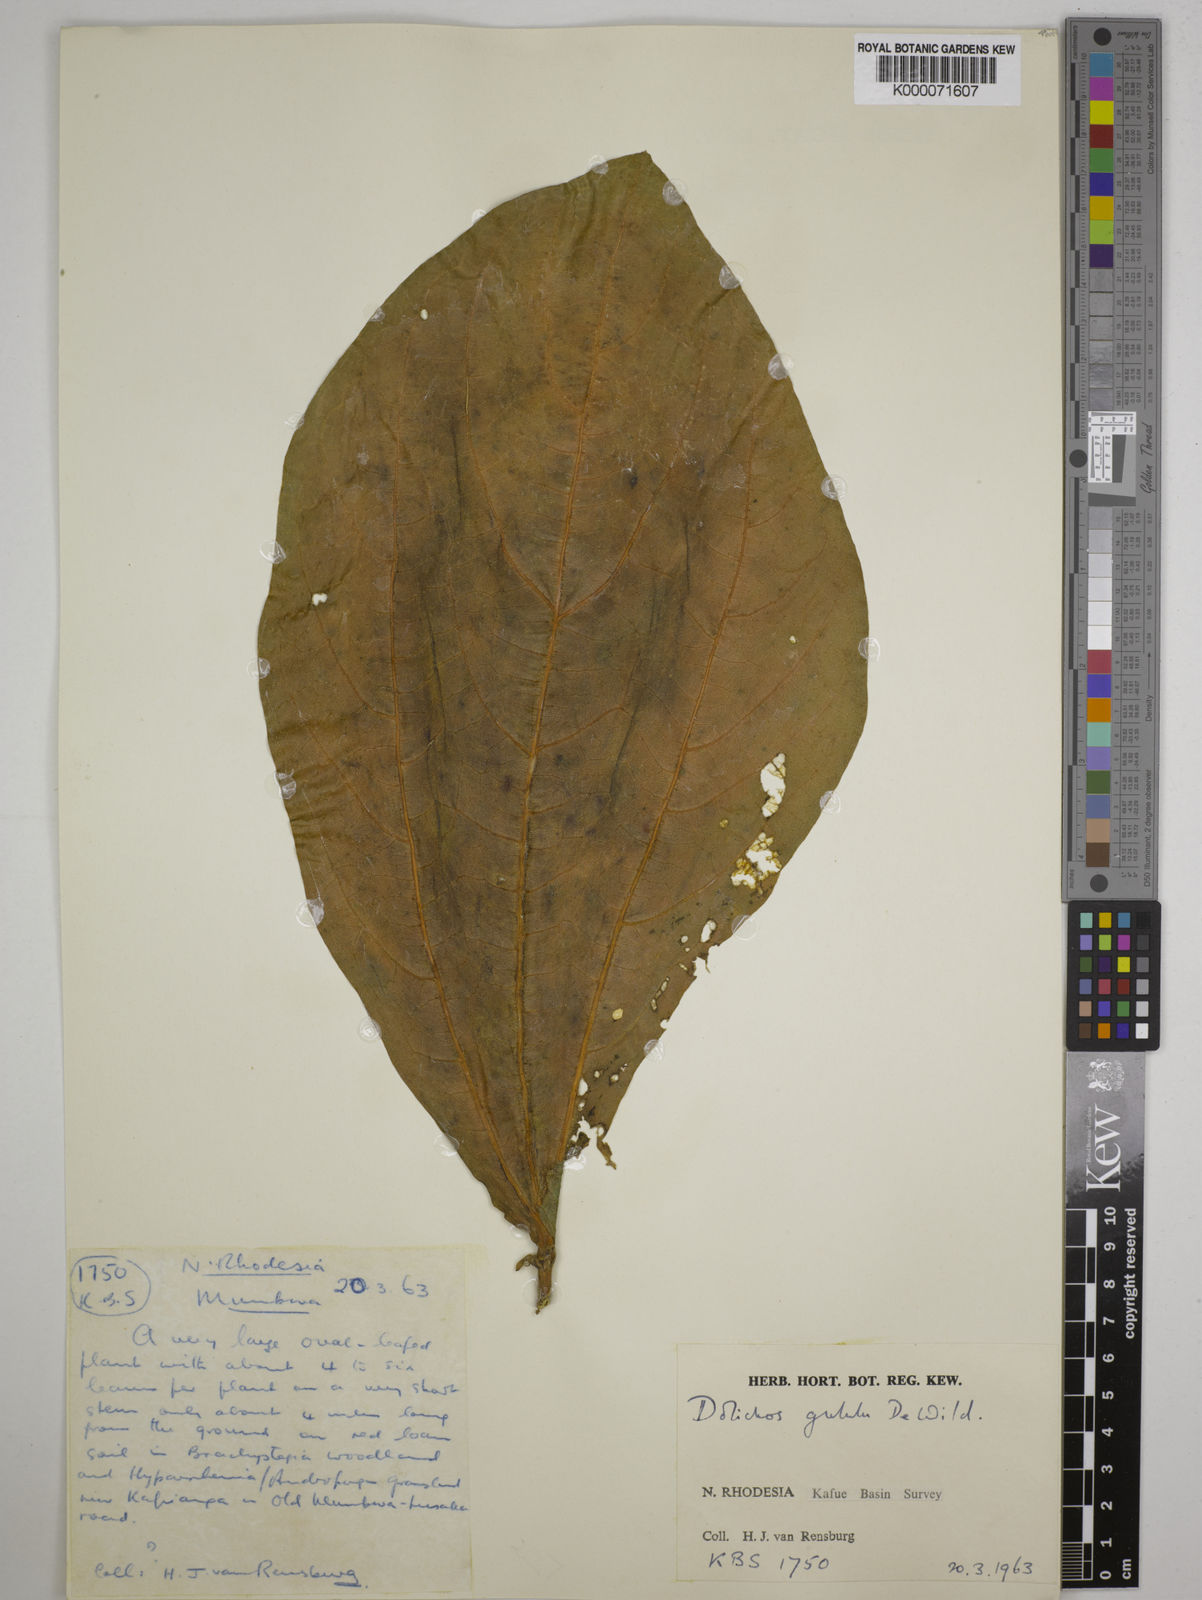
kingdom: Plantae
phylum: Tracheophyta
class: Magnoliopsida
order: Fabales
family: Fabaceae
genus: Dolichos
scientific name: Dolichos gululu
